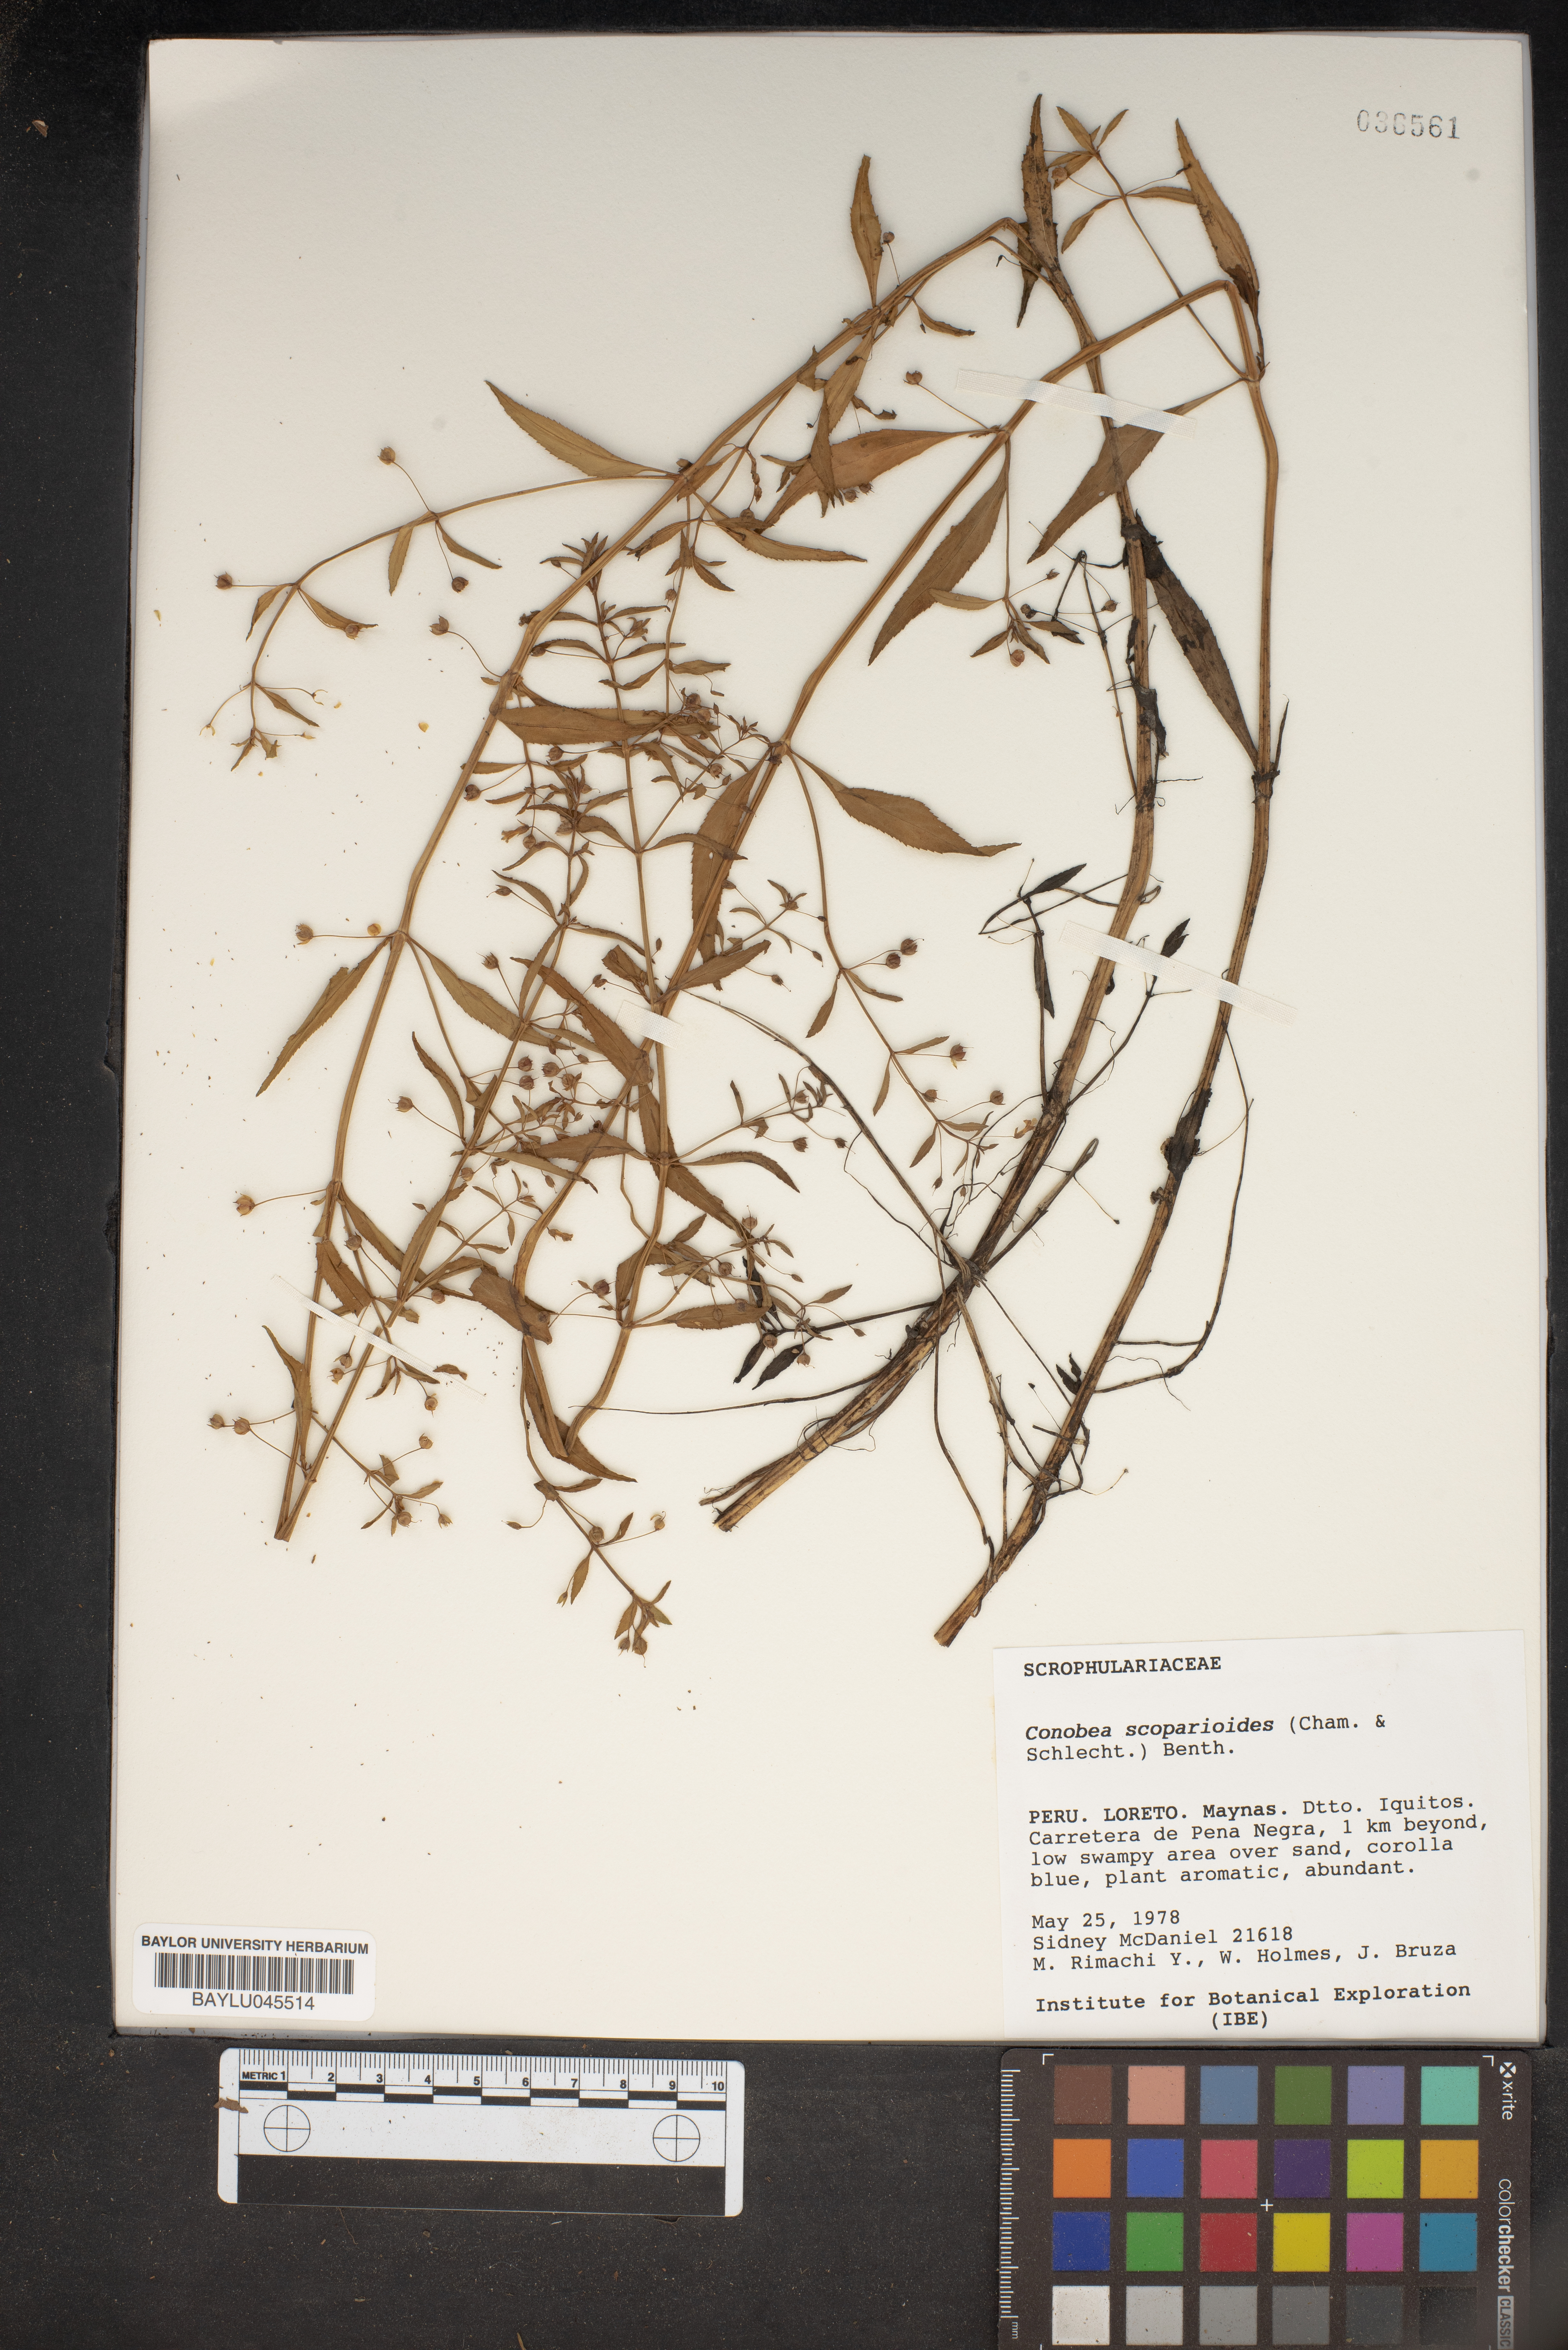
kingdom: Plantae
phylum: Tracheophyta
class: Magnoliopsida
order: Lamiales
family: Plantaginaceae
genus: Conobea
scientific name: Conobea scoparioides
